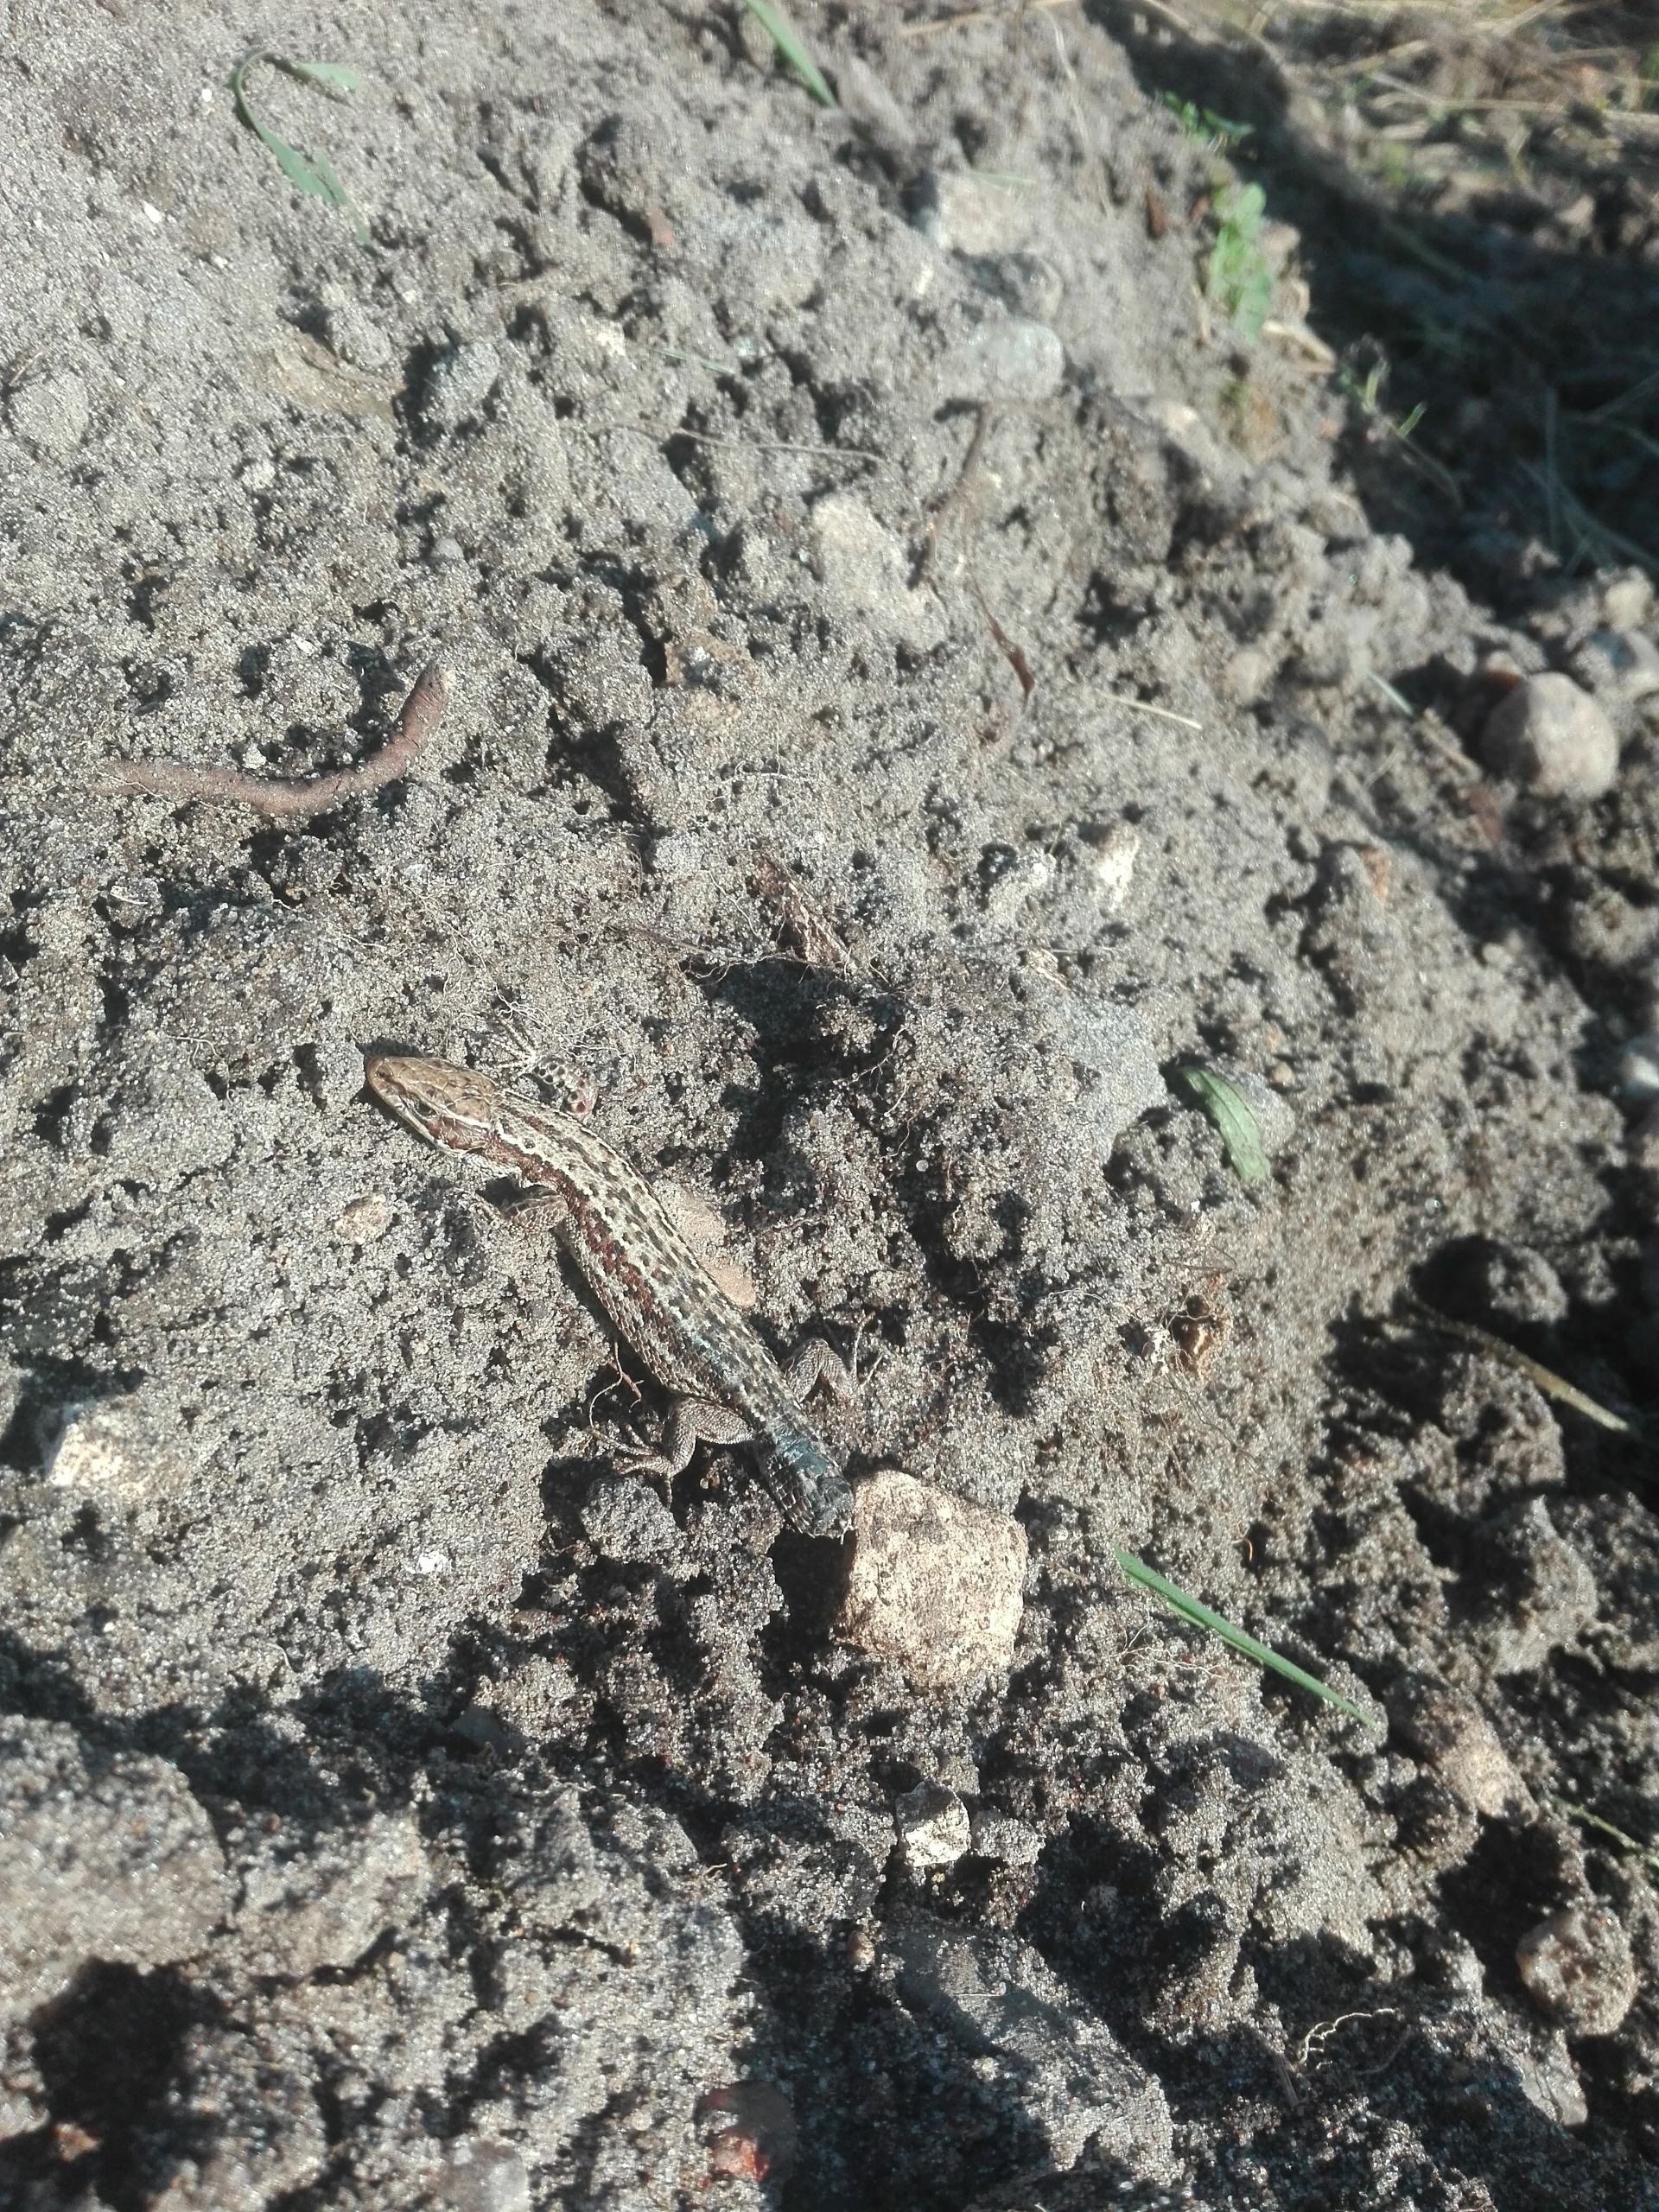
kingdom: Animalia
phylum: Chordata
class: Squamata
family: Lacertidae
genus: Zootoca
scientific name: Zootoca vivipara
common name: Skovfirben
